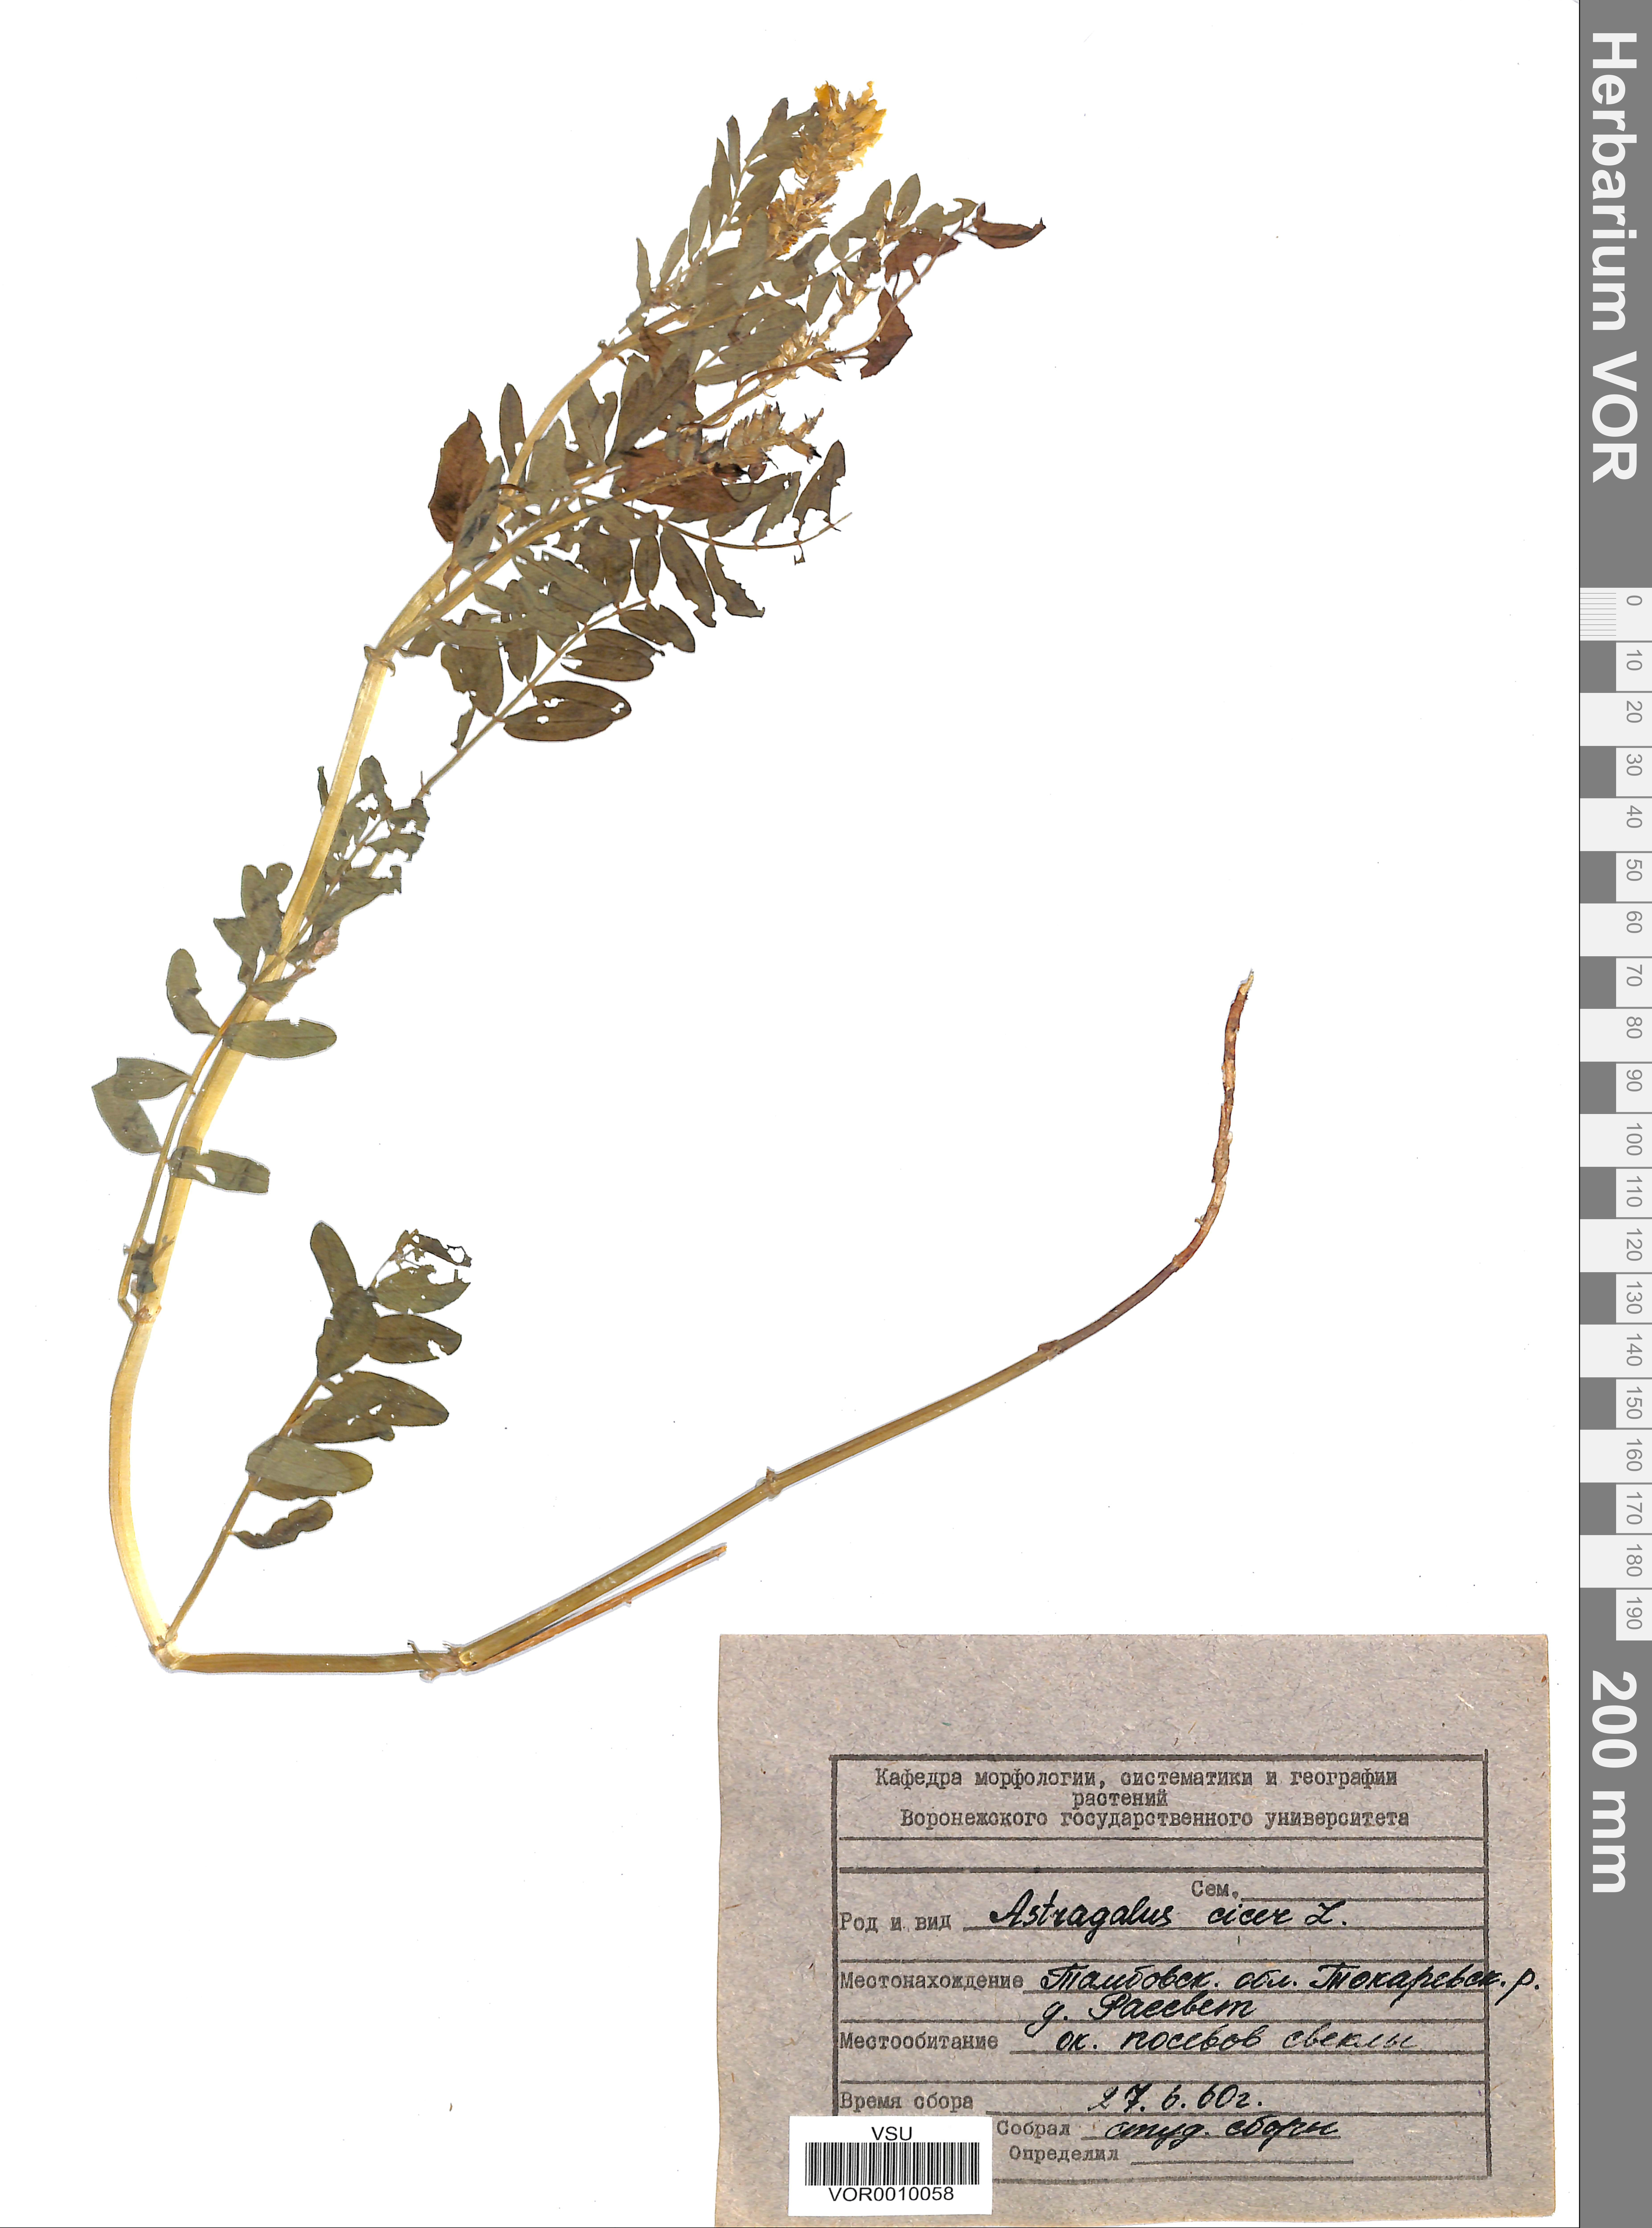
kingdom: Plantae
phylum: Tracheophyta
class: Magnoliopsida
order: Fabales
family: Fabaceae
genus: Astragalus
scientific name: Astragalus cicer
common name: Chick-pea milk-vetch
